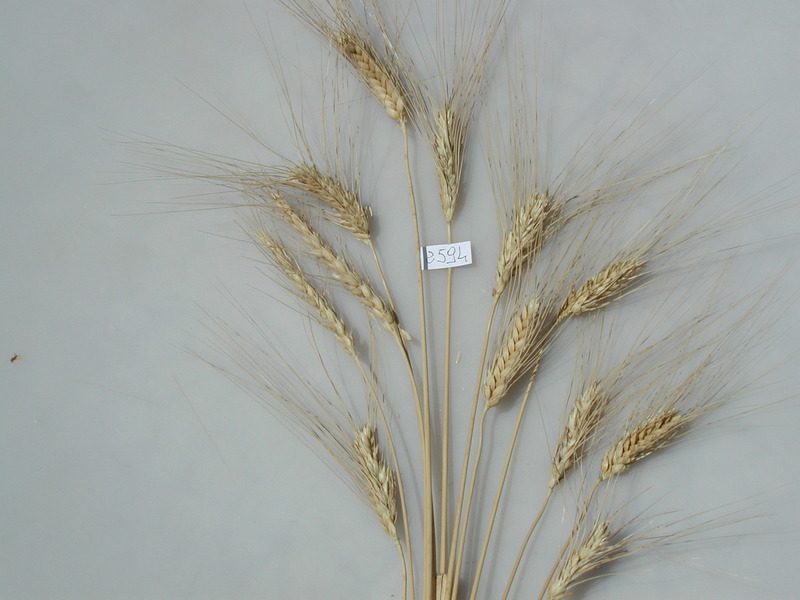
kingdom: Plantae
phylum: Tracheophyta
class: Liliopsida
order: Poales
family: Poaceae
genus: Triticum
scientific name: Triticum aestivum
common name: Wheat
